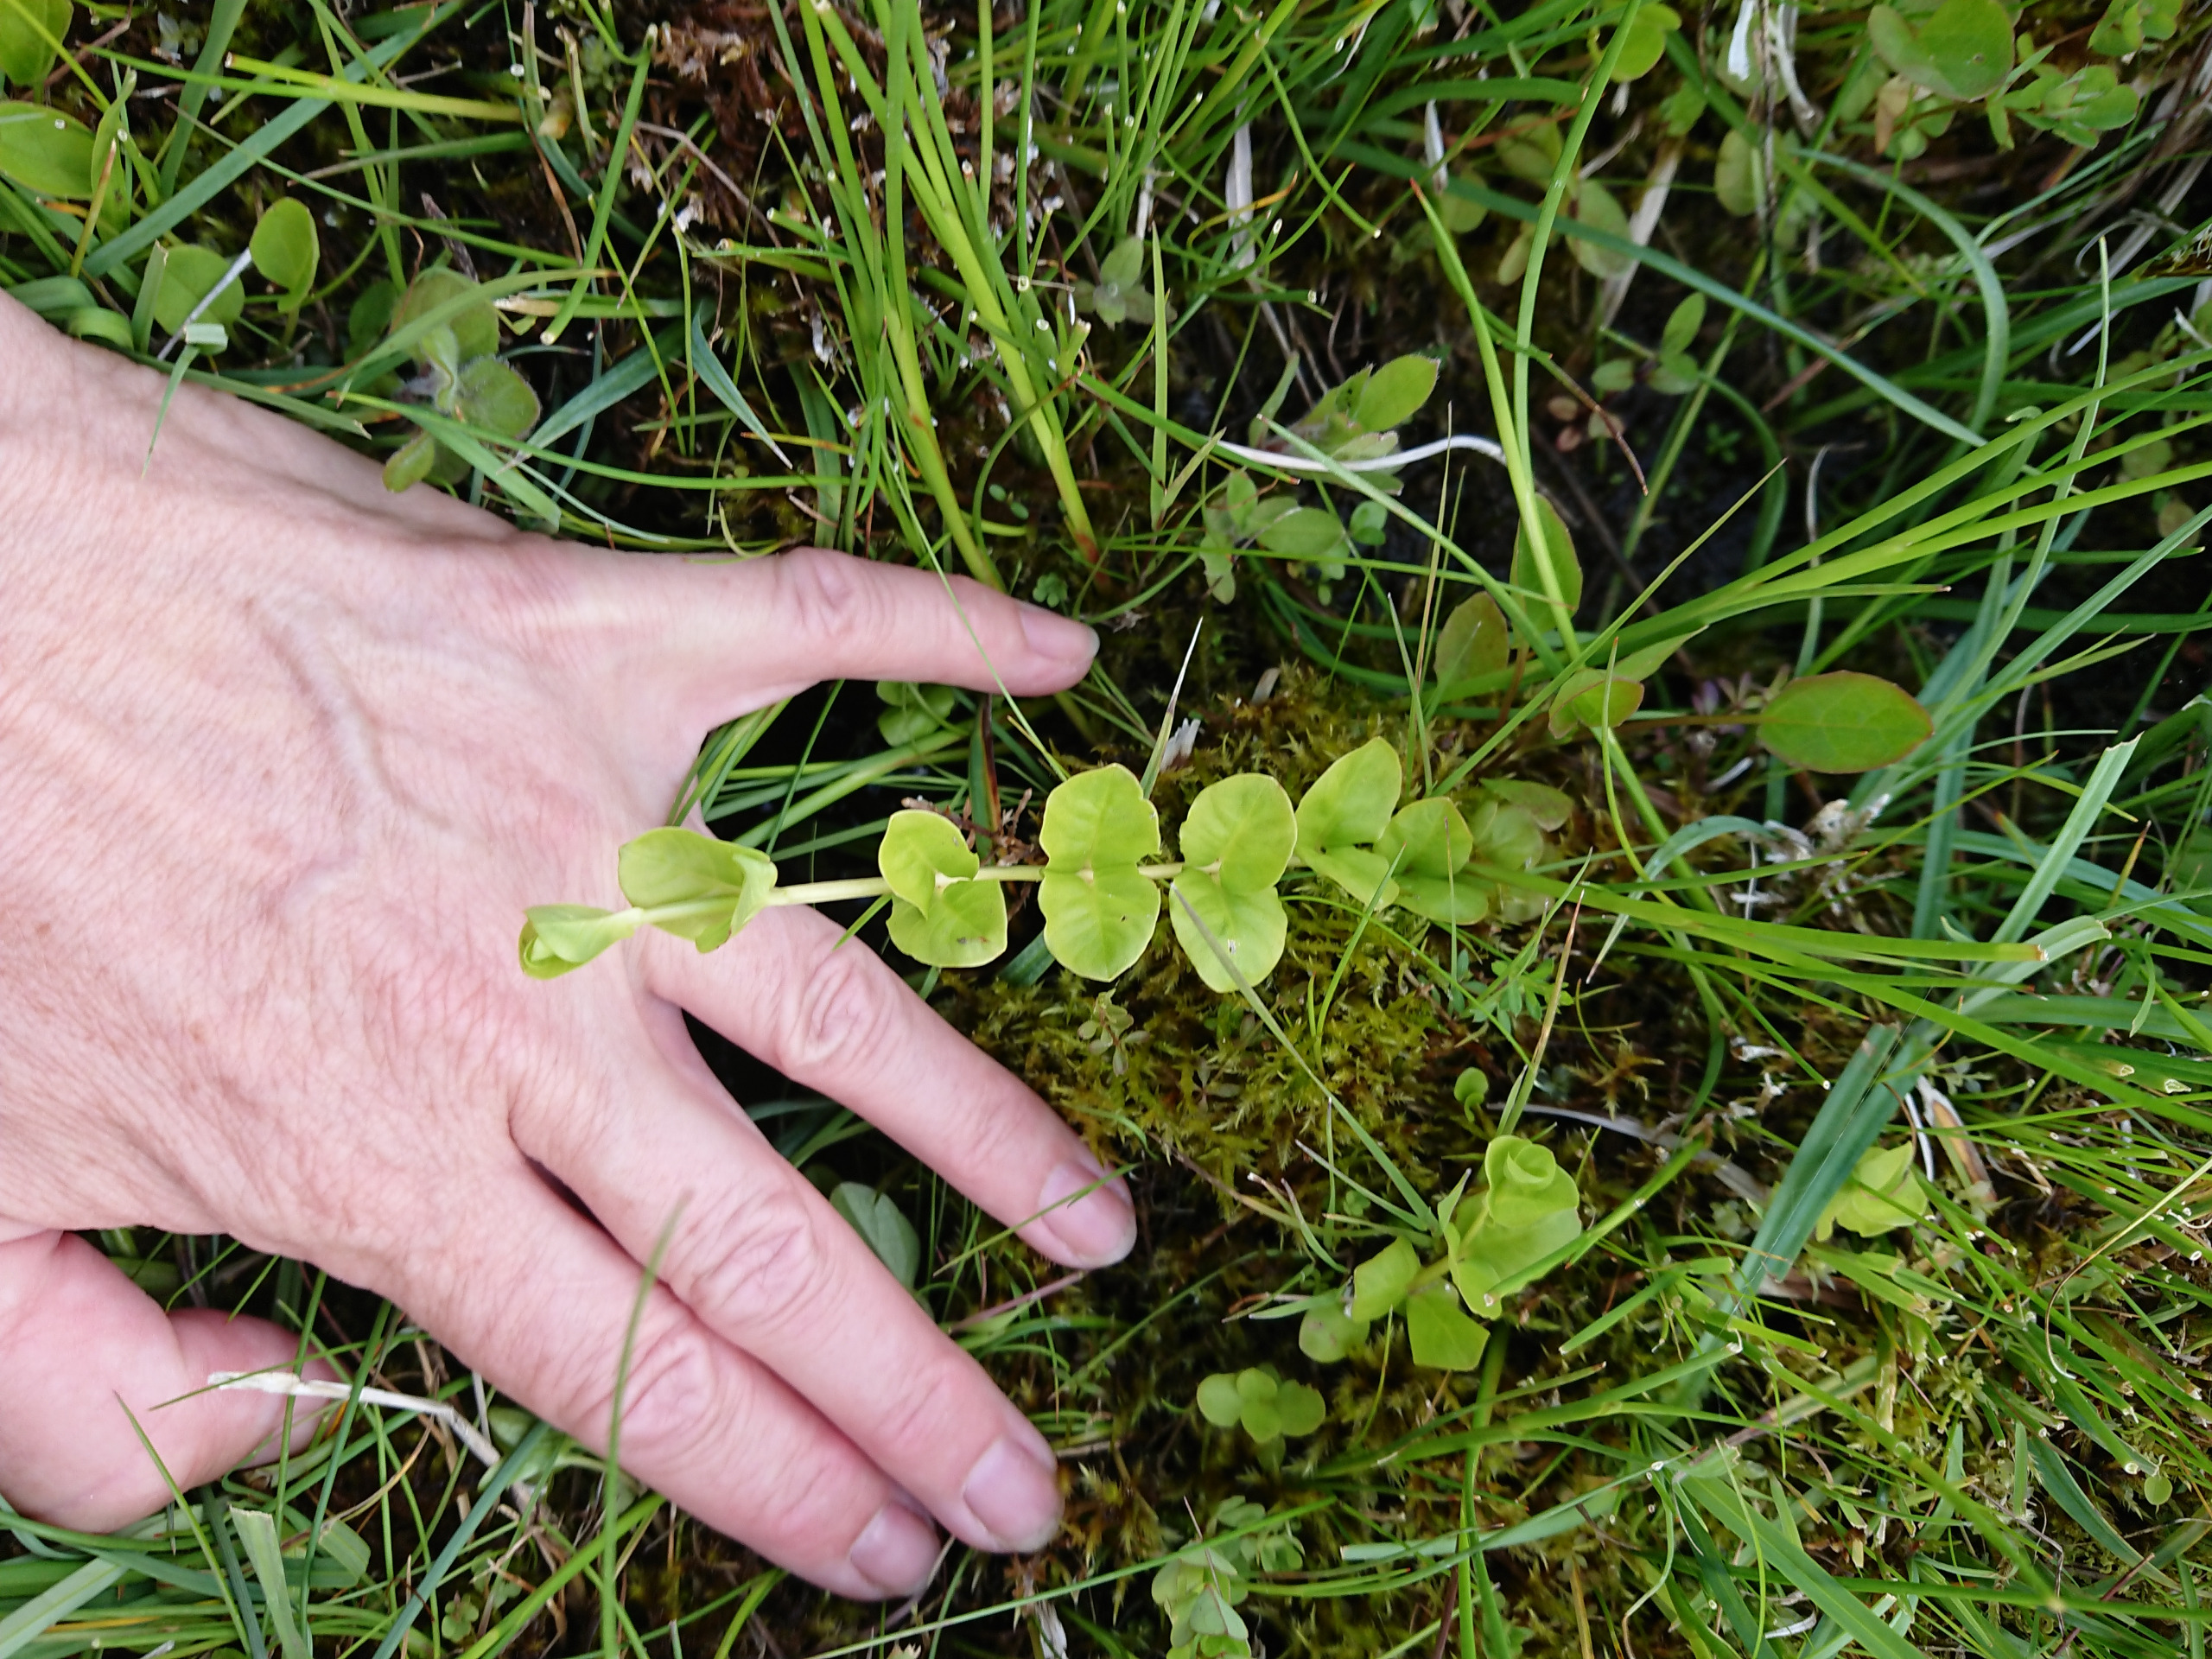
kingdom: Plantae
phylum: Tracheophyta
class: Magnoliopsida
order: Ericales
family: Primulaceae
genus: Lysimachia
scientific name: Lysimachia nummularia
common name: Pengebladet fredløs
